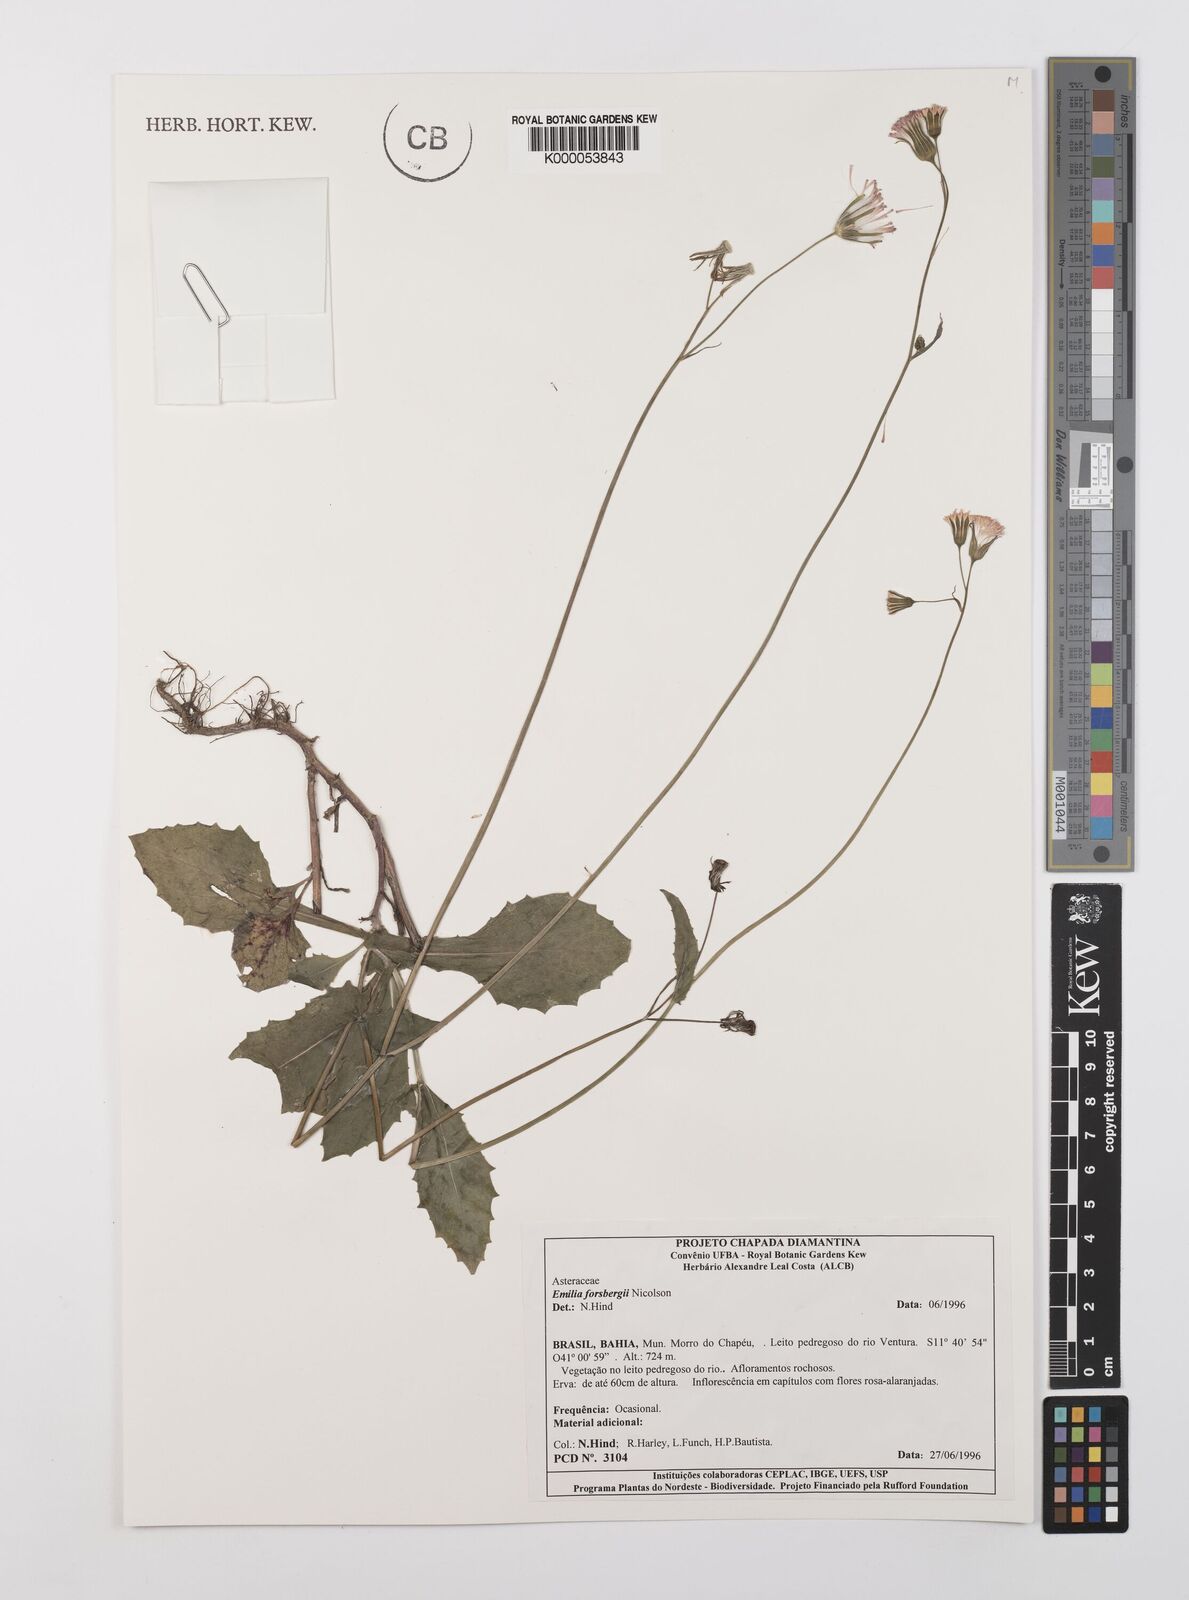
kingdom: Plantae
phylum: Tracheophyta
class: Magnoliopsida
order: Asterales
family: Asteraceae
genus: Emilia
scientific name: Emilia fosbergii
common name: Florida tasselflower
